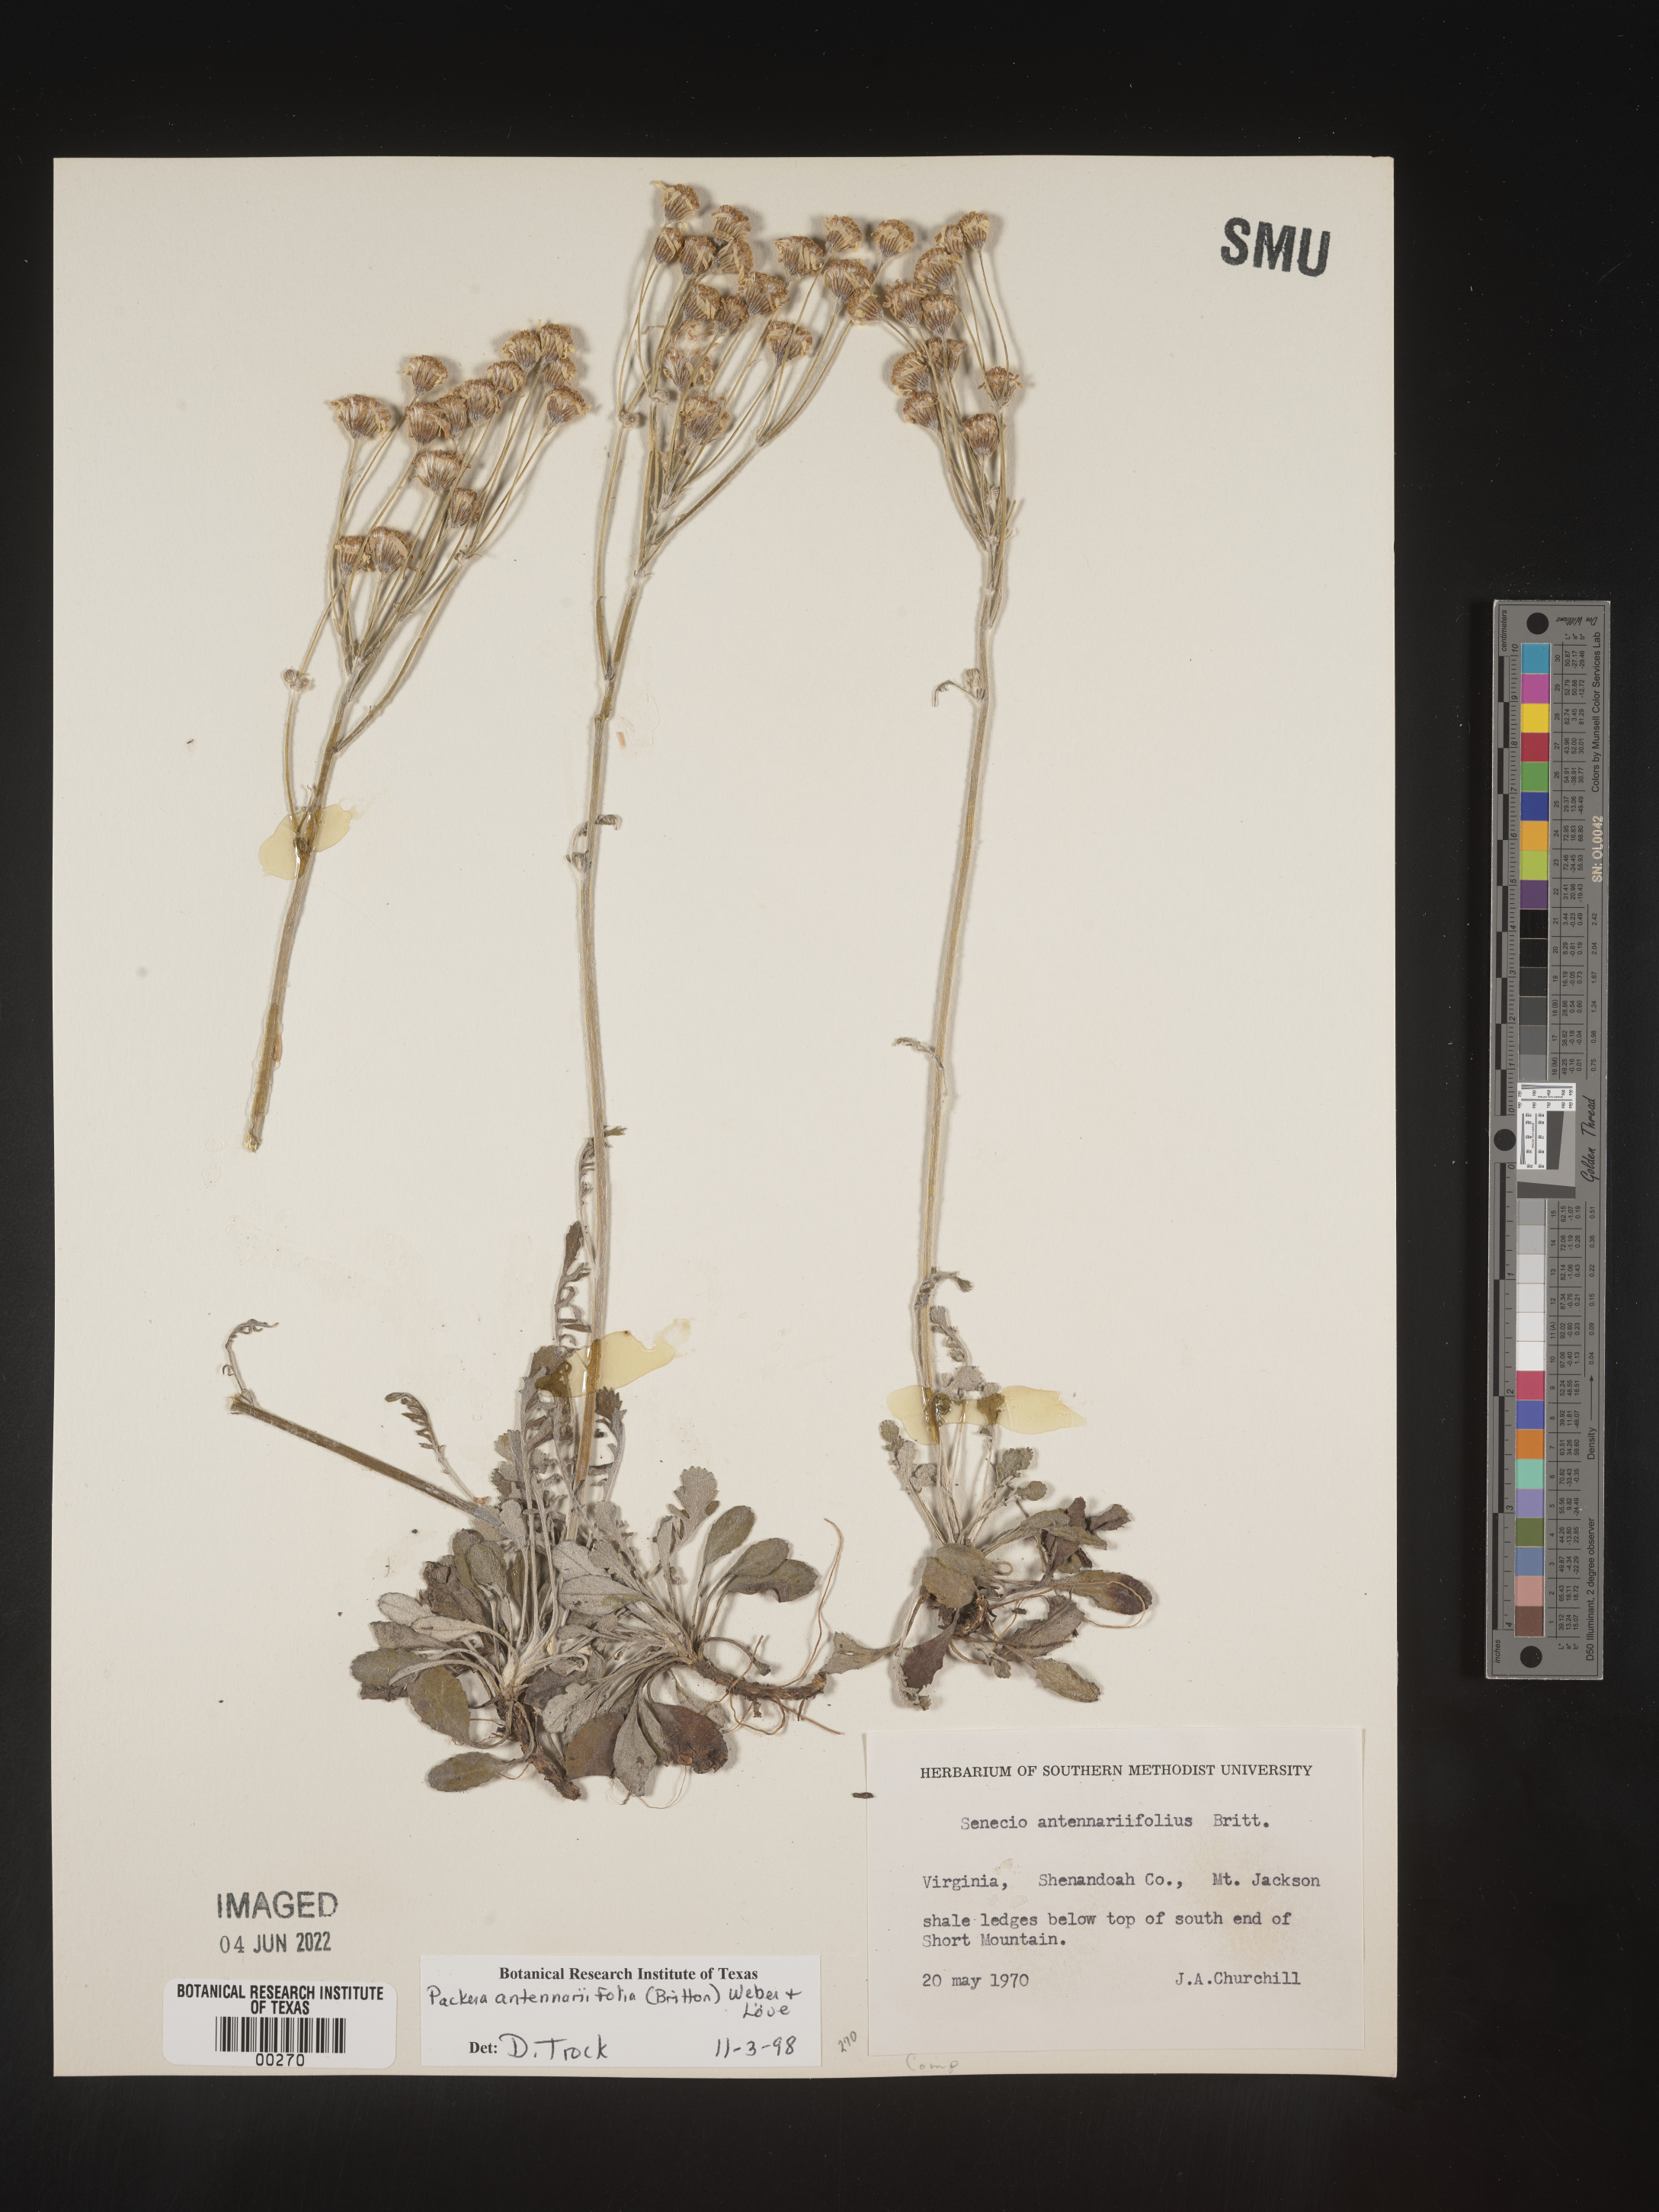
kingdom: Plantae
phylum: Tracheophyta
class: Magnoliopsida
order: Asterales
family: Asteraceae
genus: Packera
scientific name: Packera antennariifolia
